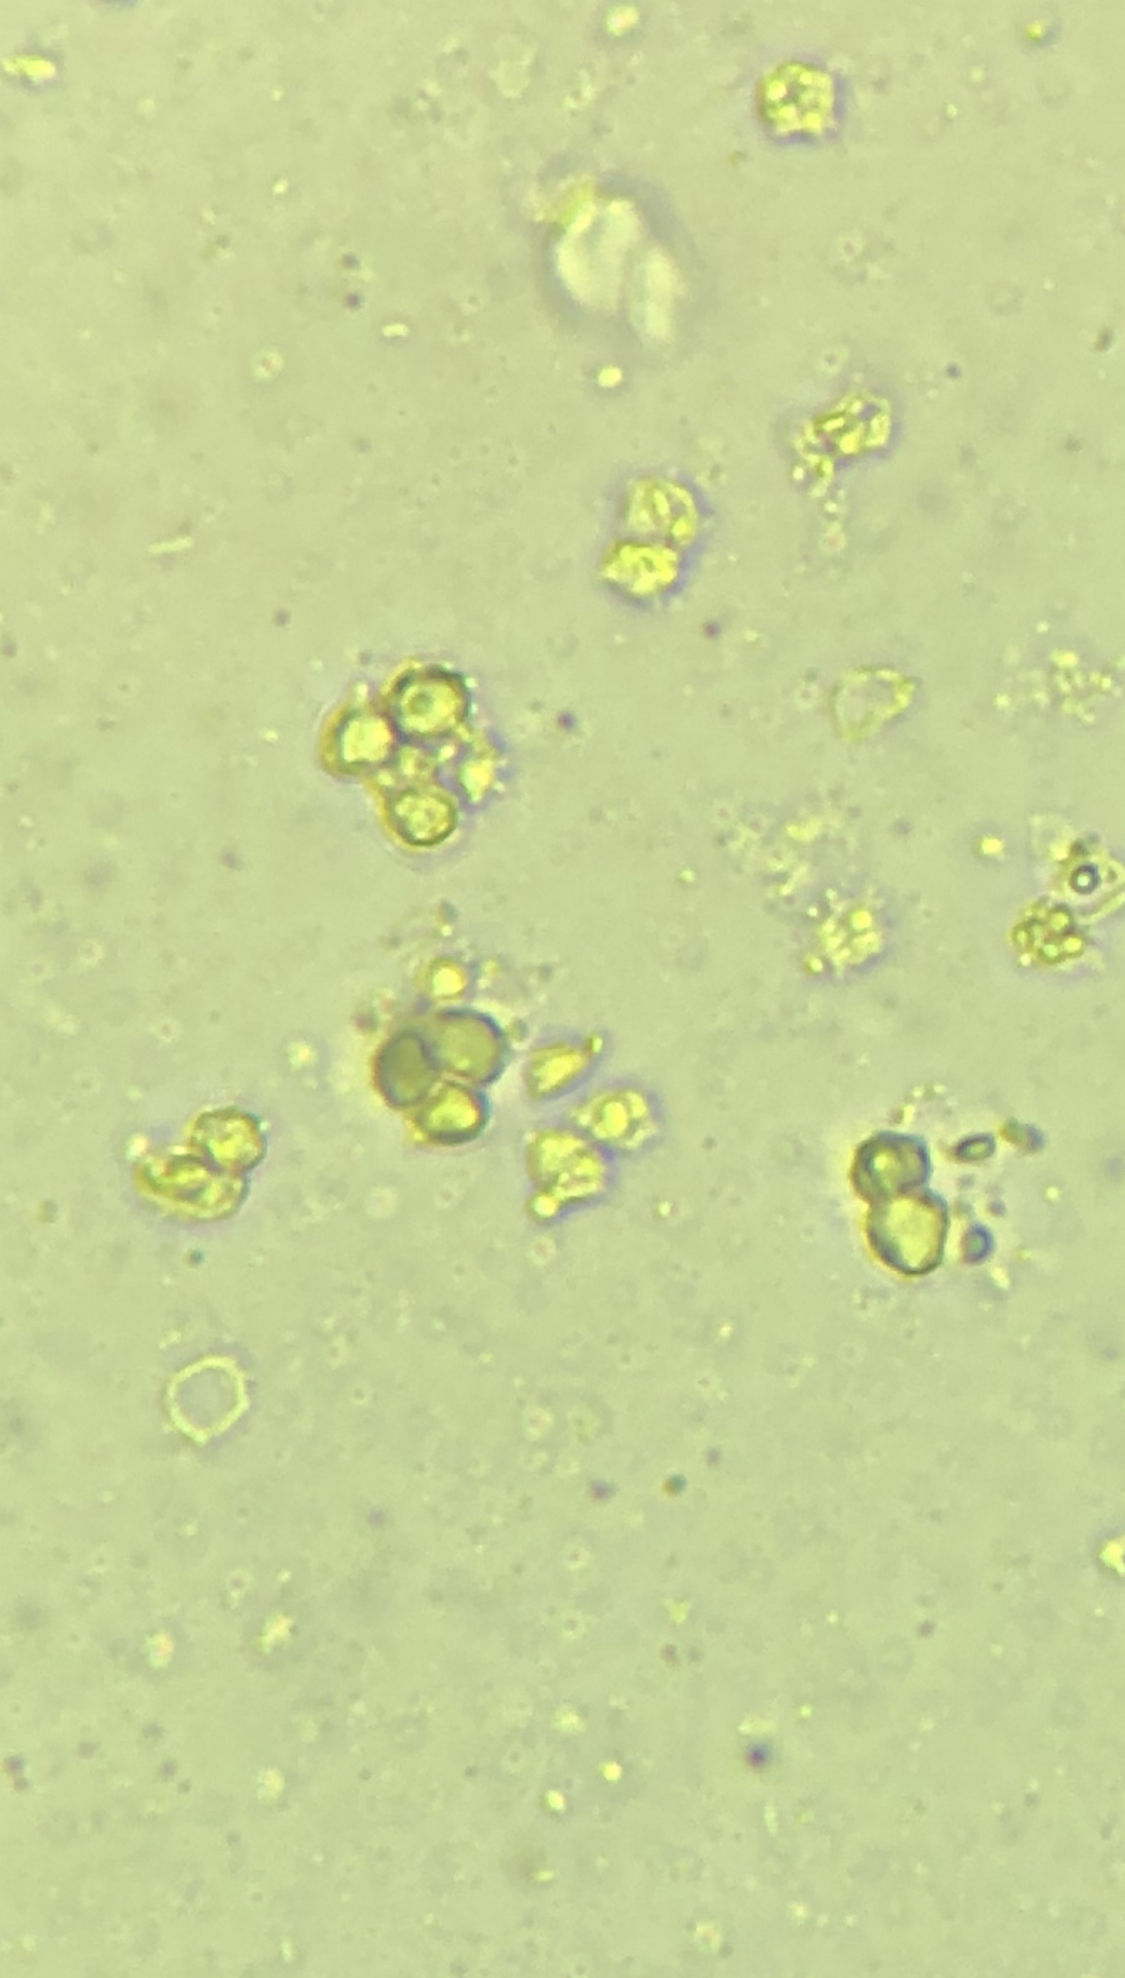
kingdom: Fungi
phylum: Basidiomycota
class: Agaricomycetes
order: Agaricales
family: Clavariaceae
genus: Clavulinopsis
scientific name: Clavulinopsis helvola
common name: orangegul køllesvamp
